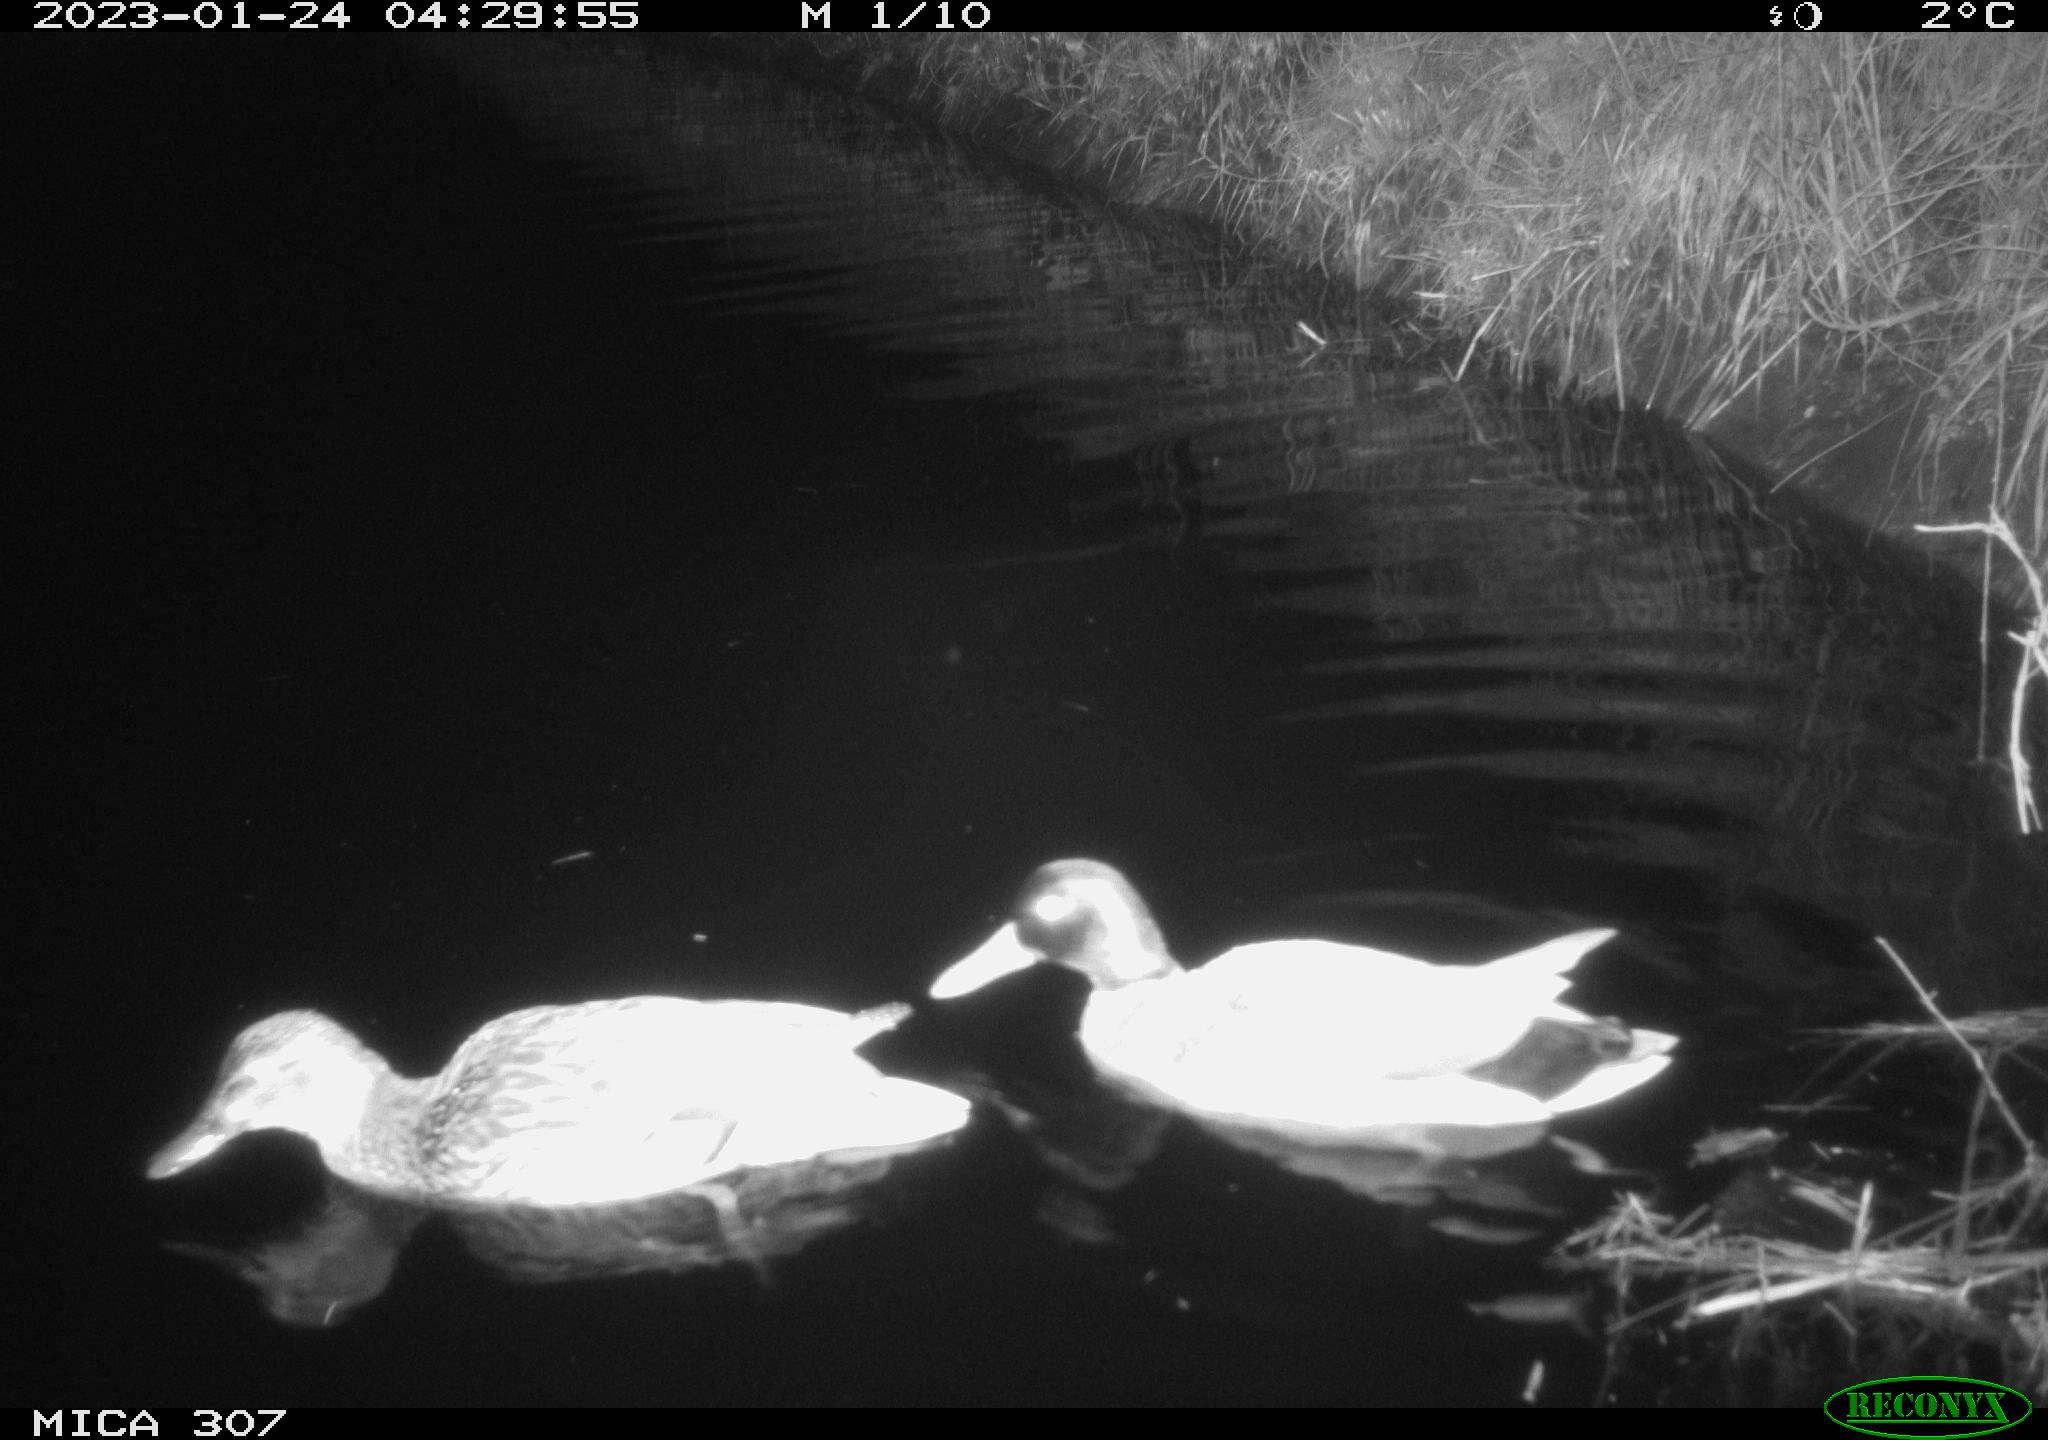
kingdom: Animalia
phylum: Chordata
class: Aves
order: Anseriformes
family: Anatidae
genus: Anas
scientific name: Anas
